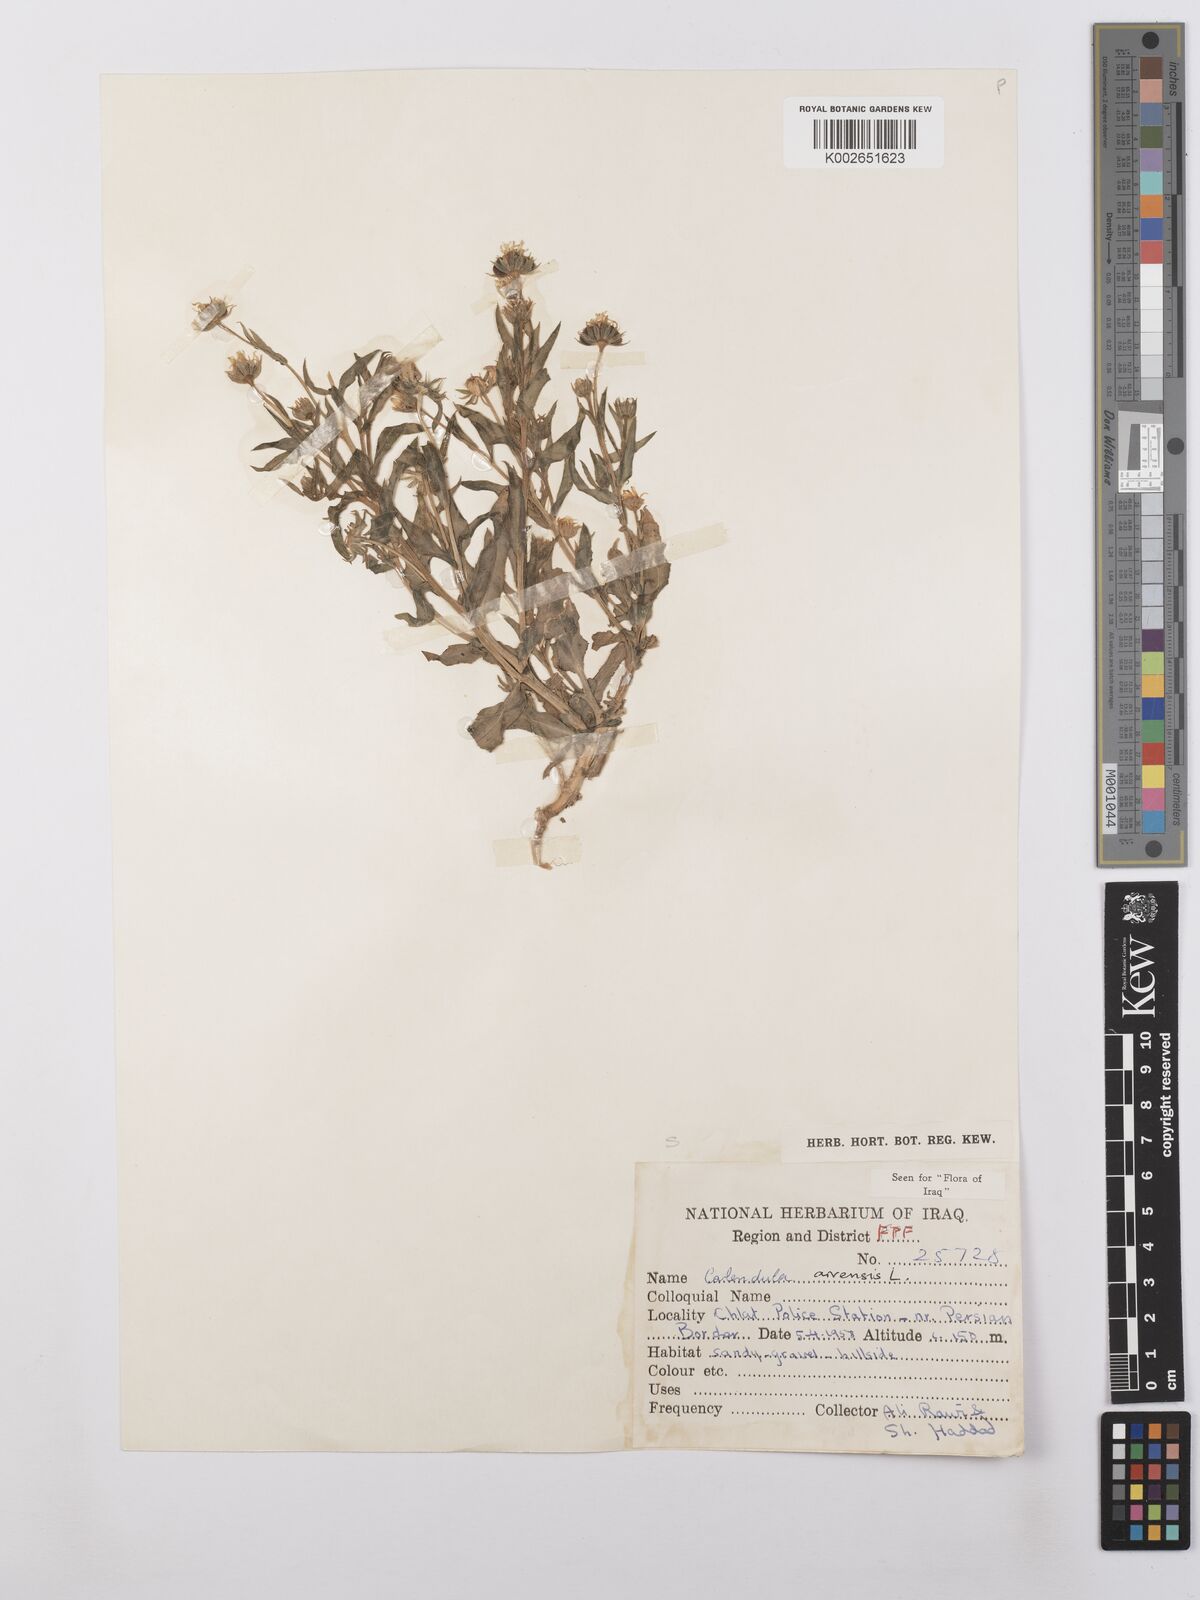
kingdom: Plantae
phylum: Tracheophyta
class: Magnoliopsida
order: Asterales
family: Asteraceae
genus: Calendula
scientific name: Calendula arvensis
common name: Field marigold
